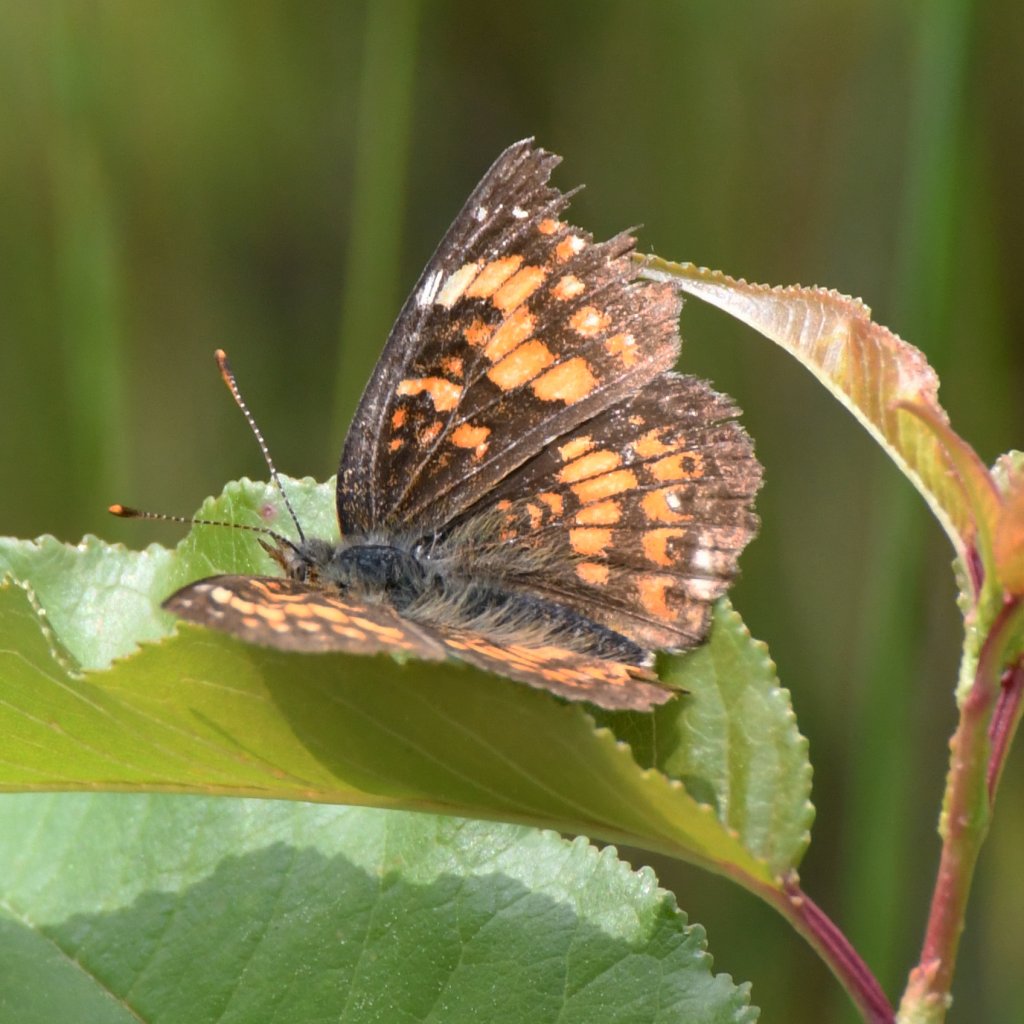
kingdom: Animalia
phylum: Arthropoda
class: Insecta
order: Lepidoptera
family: Nymphalidae
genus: Chlosyne
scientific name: Chlosyne harrisii
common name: Harris's Checkerspot
